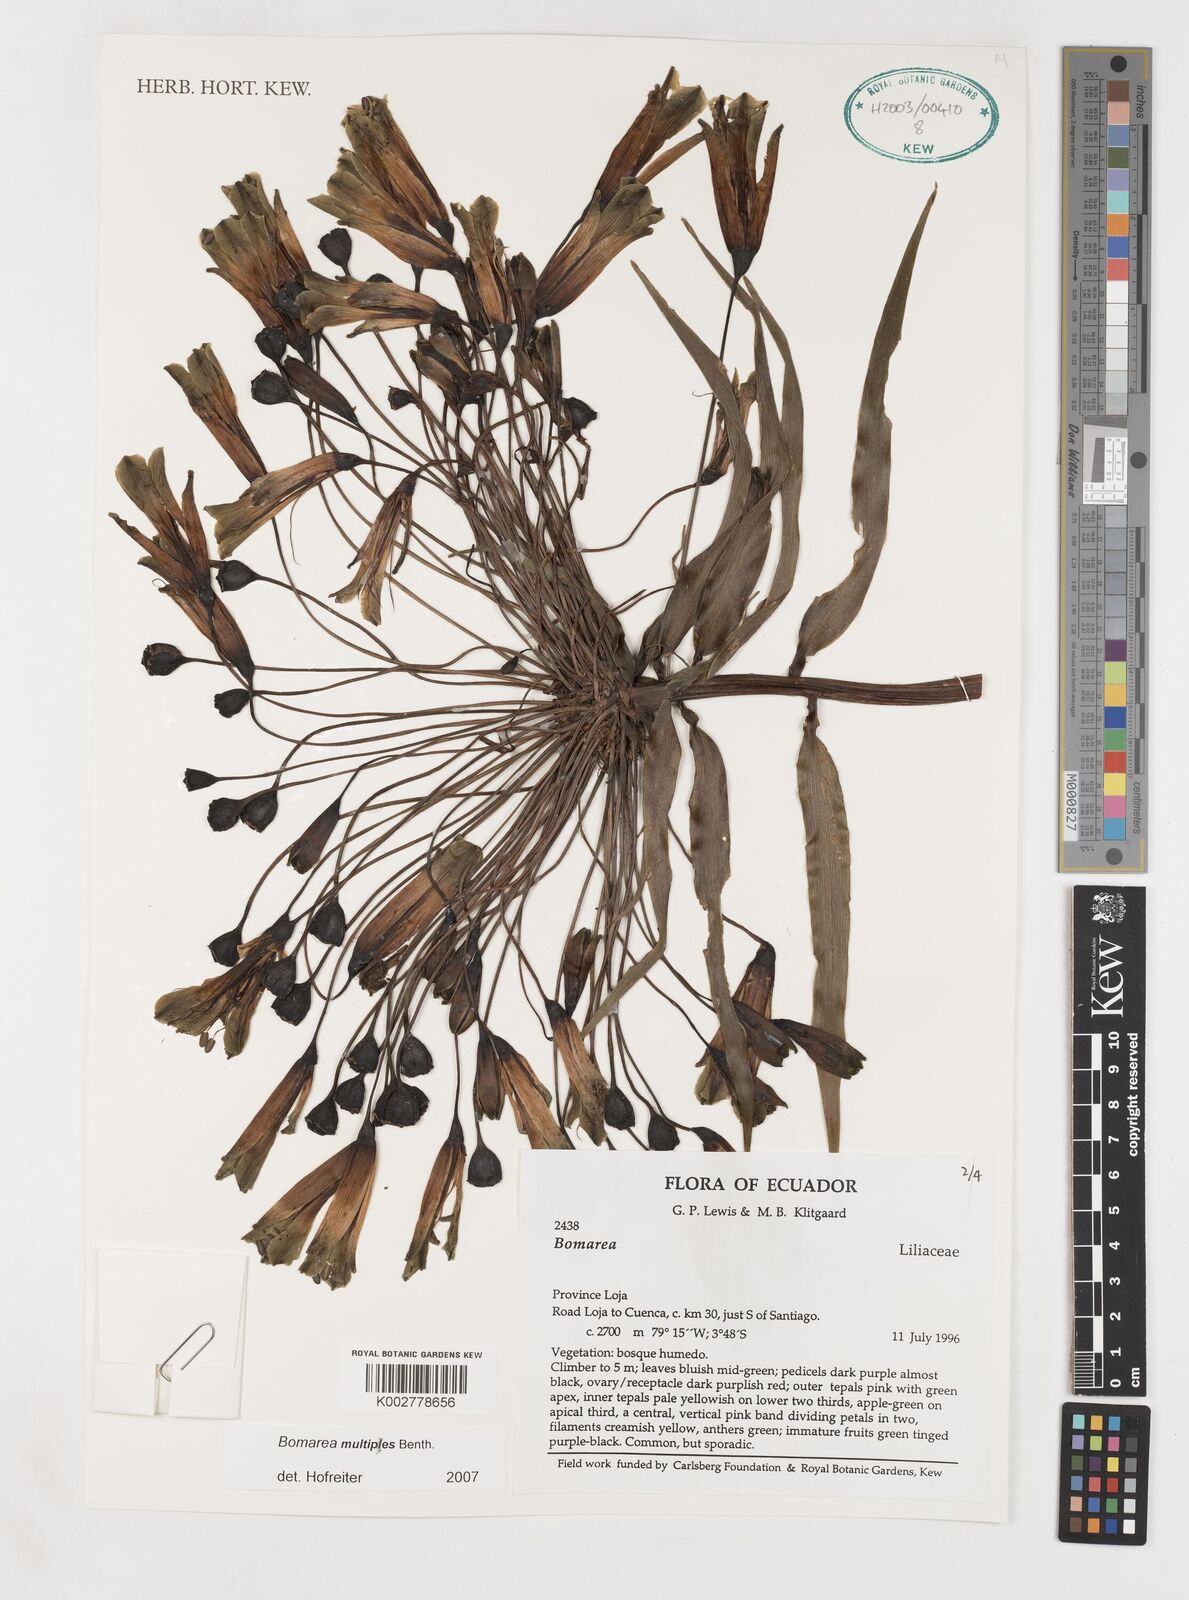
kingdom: Plantae
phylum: Tracheophyta
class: Liliopsida
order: Liliales
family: Alstroemeriaceae
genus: Bomarea
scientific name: Bomarea multipes
